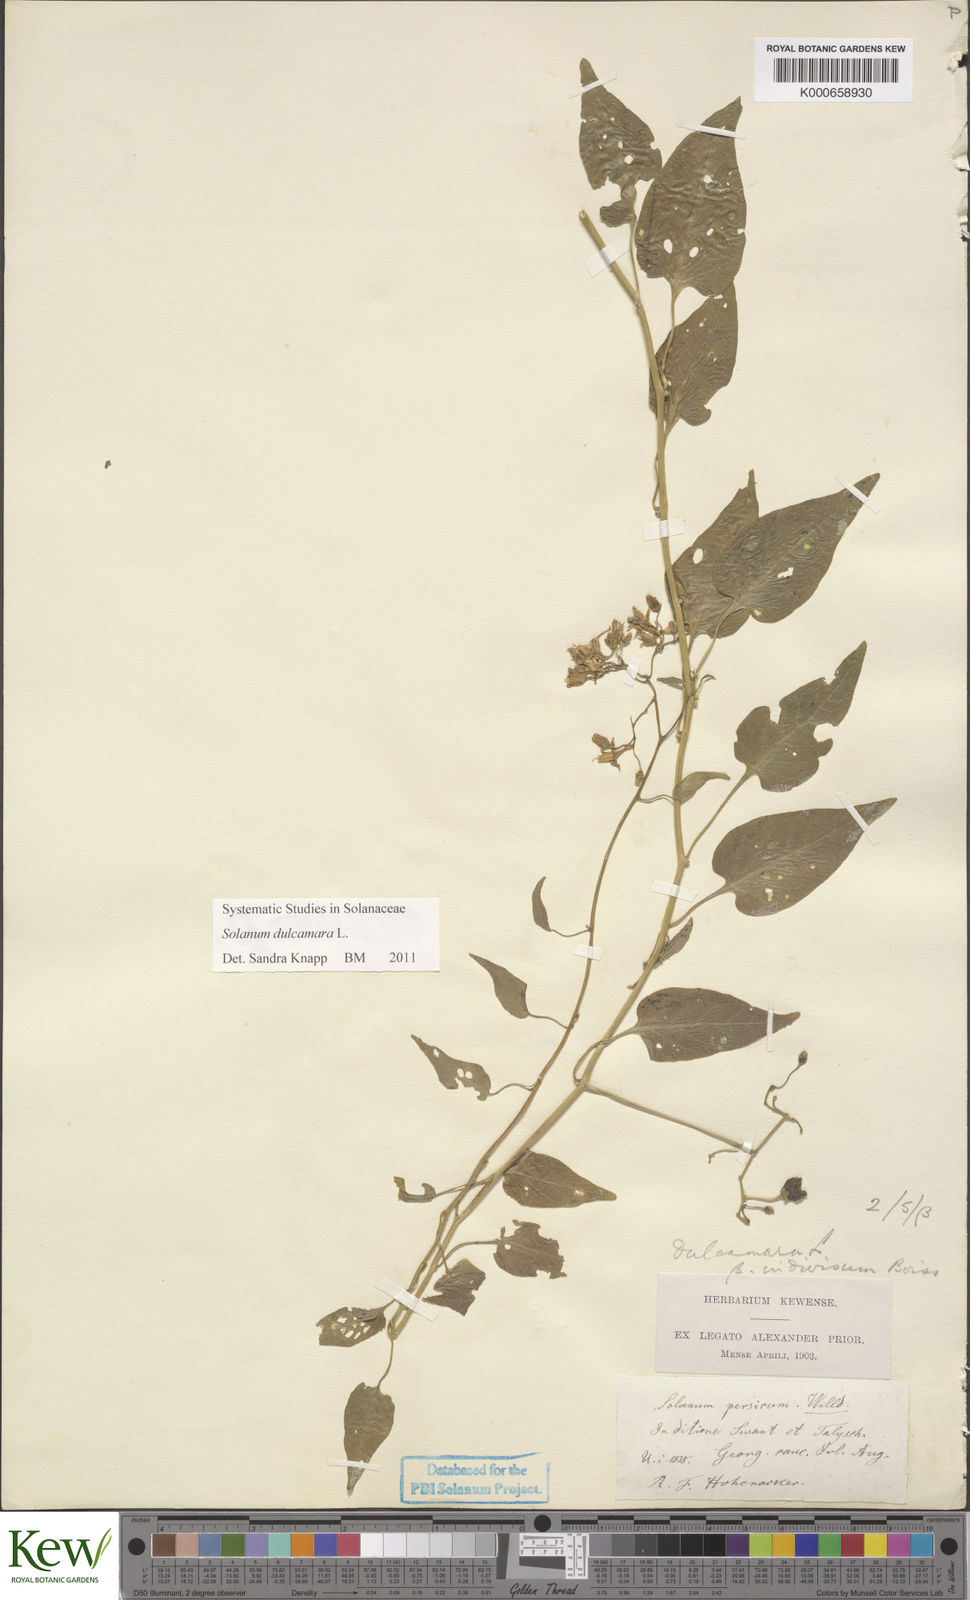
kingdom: Plantae
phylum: Tracheophyta
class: Magnoliopsida
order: Solanales
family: Solanaceae
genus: Solanum
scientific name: Solanum dulcamara
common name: Climbing nightshade
